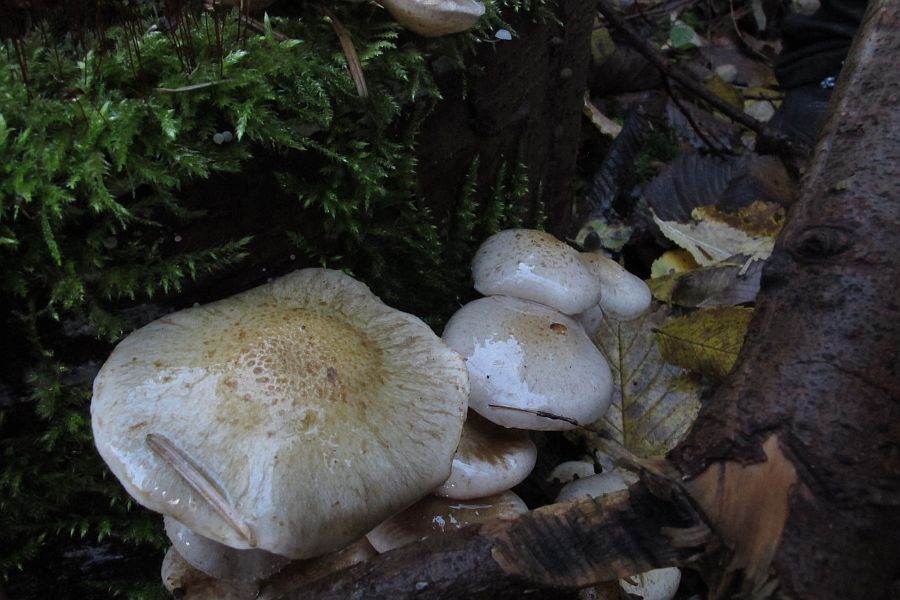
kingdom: Fungi
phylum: Basidiomycota
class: Agaricomycetes
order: Agaricales
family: Strophariaceae
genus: Pholiota
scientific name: Pholiota lenta
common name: løv-skælhat
